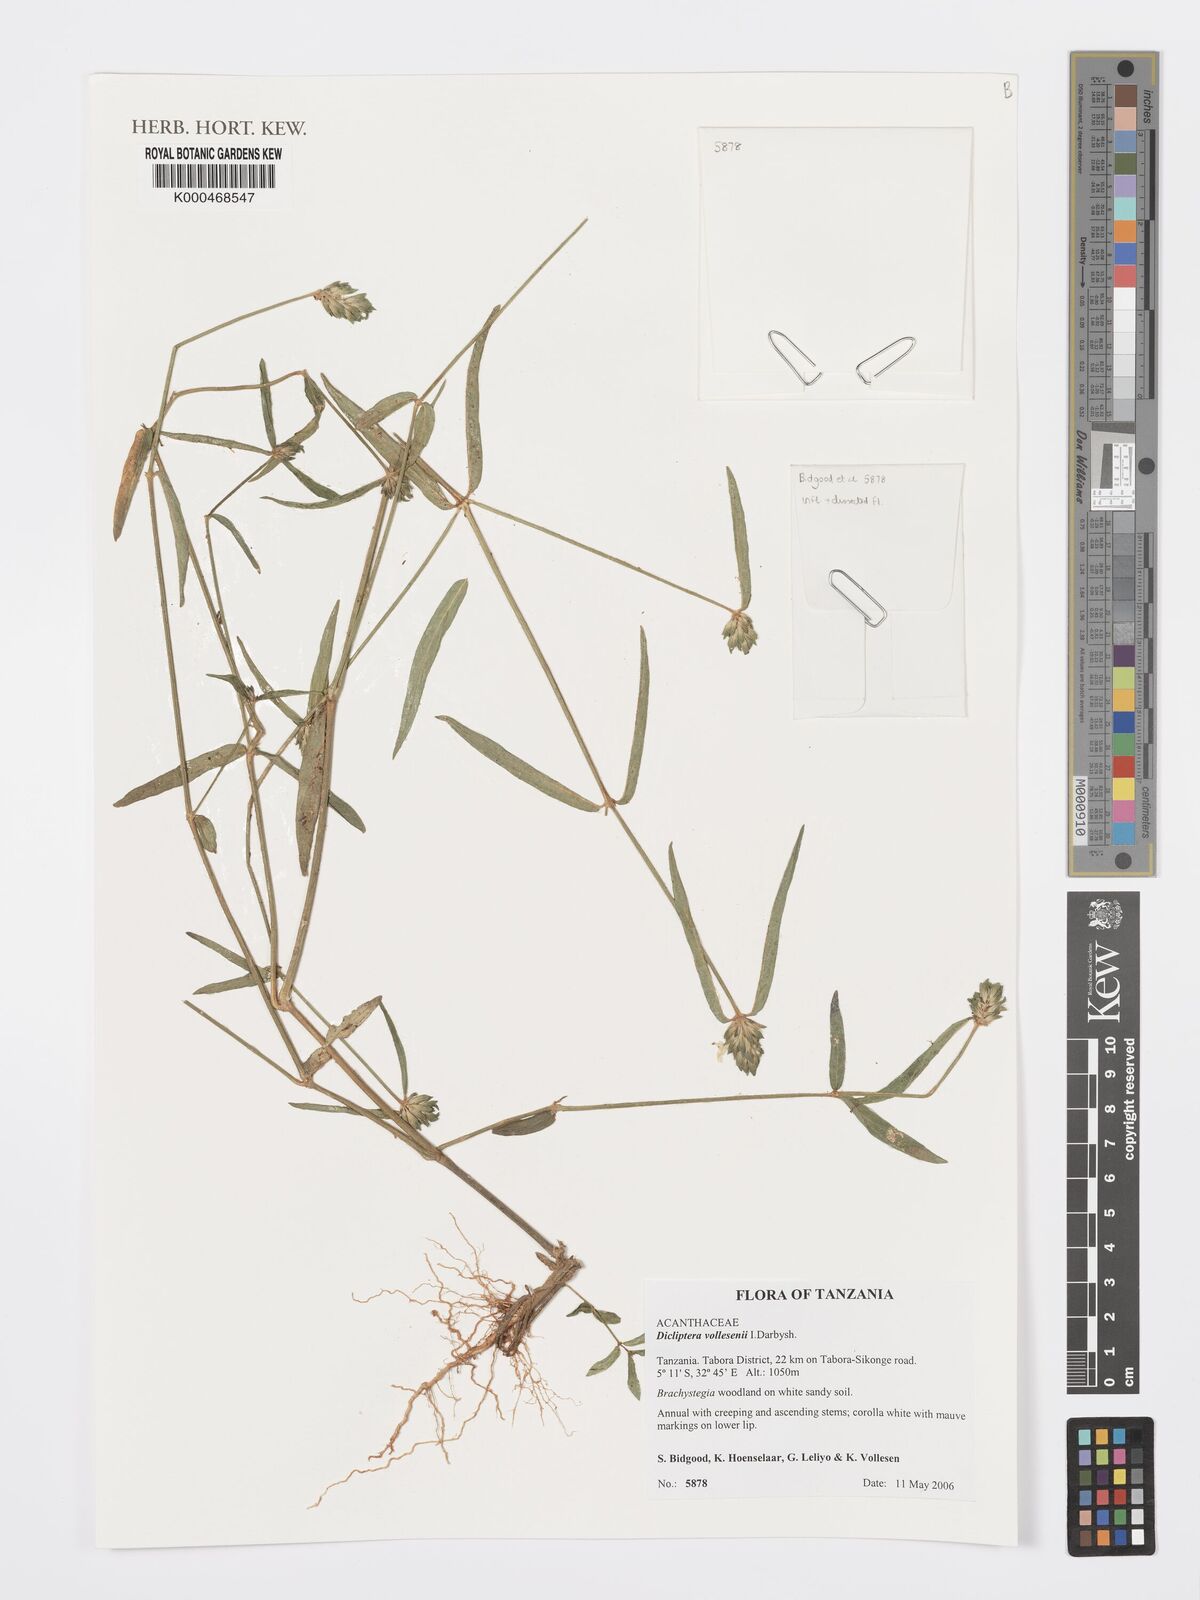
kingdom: Plantae
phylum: Tracheophyta
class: Magnoliopsida
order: Lamiales
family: Acanthaceae
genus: Dicliptera
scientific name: Dicliptera vollesenii
